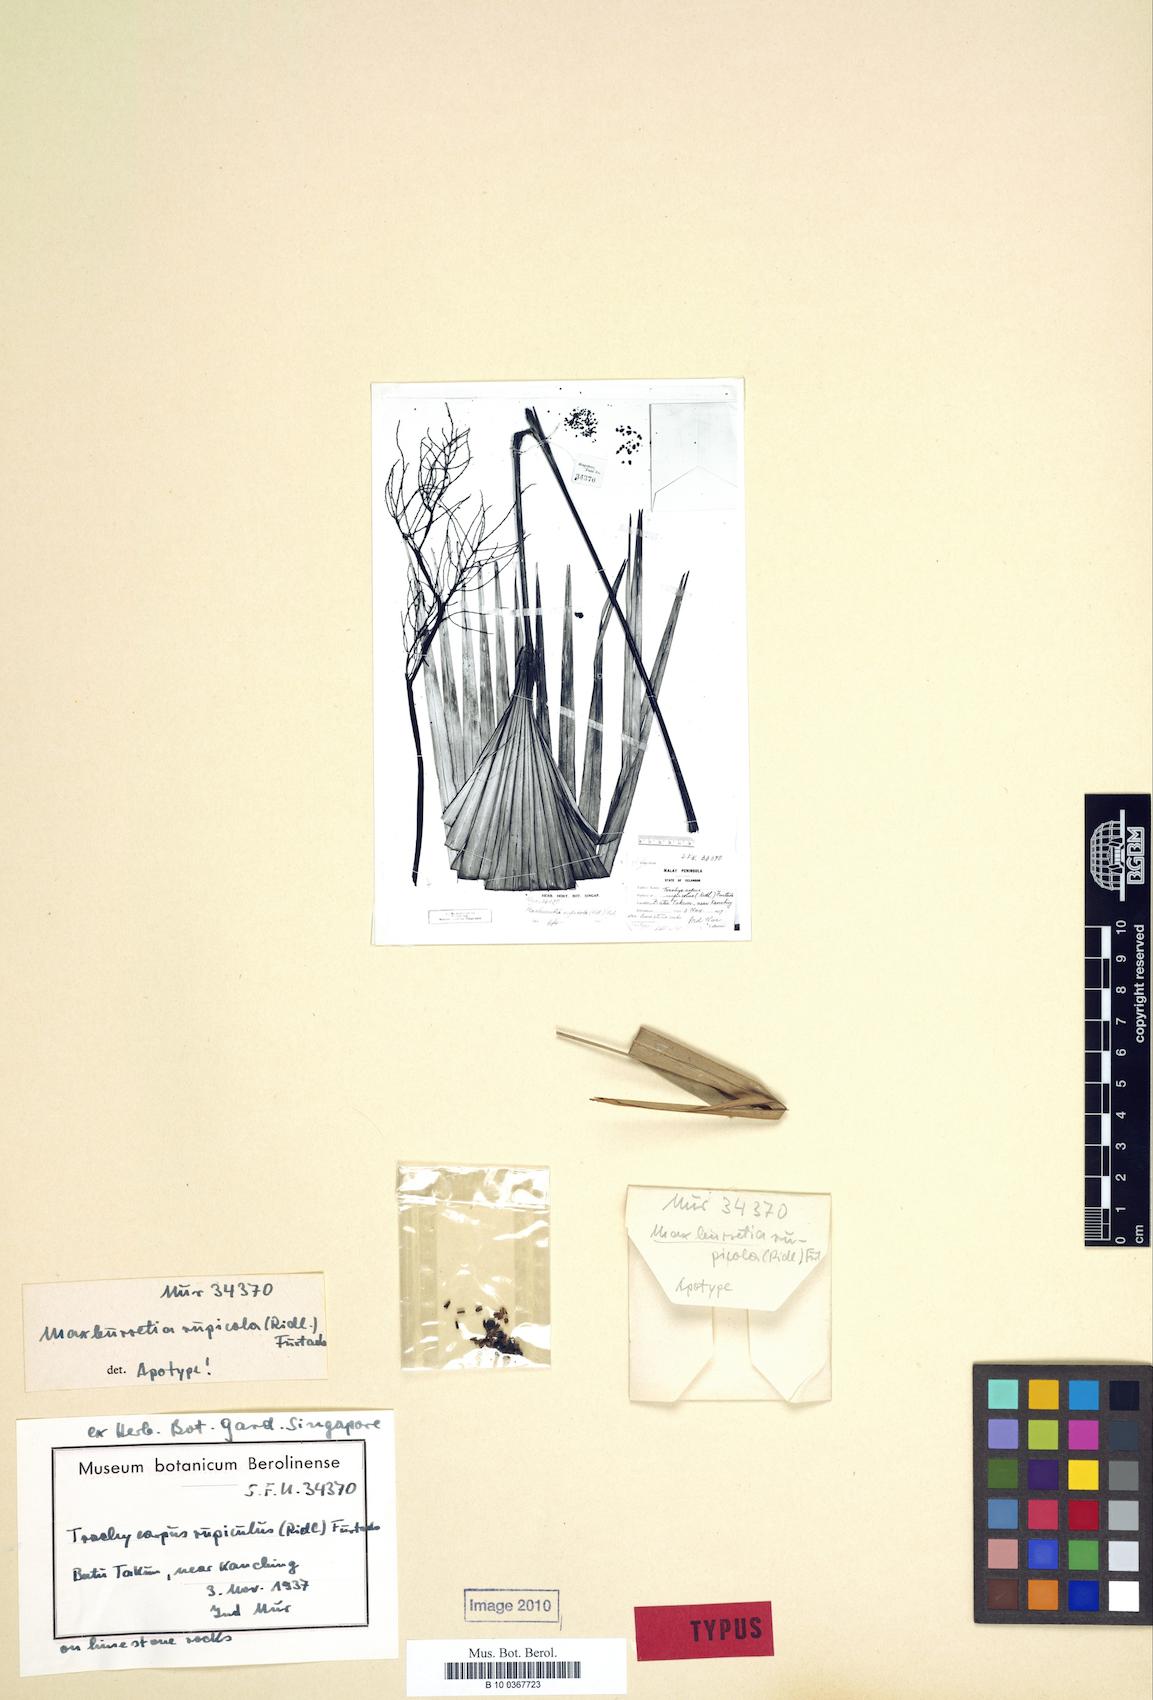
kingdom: Plantae
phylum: Tracheophyta
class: Liliopsida
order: Arecales
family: Arecaceae
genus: Maxburretia
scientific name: Maxburretia rupicola
